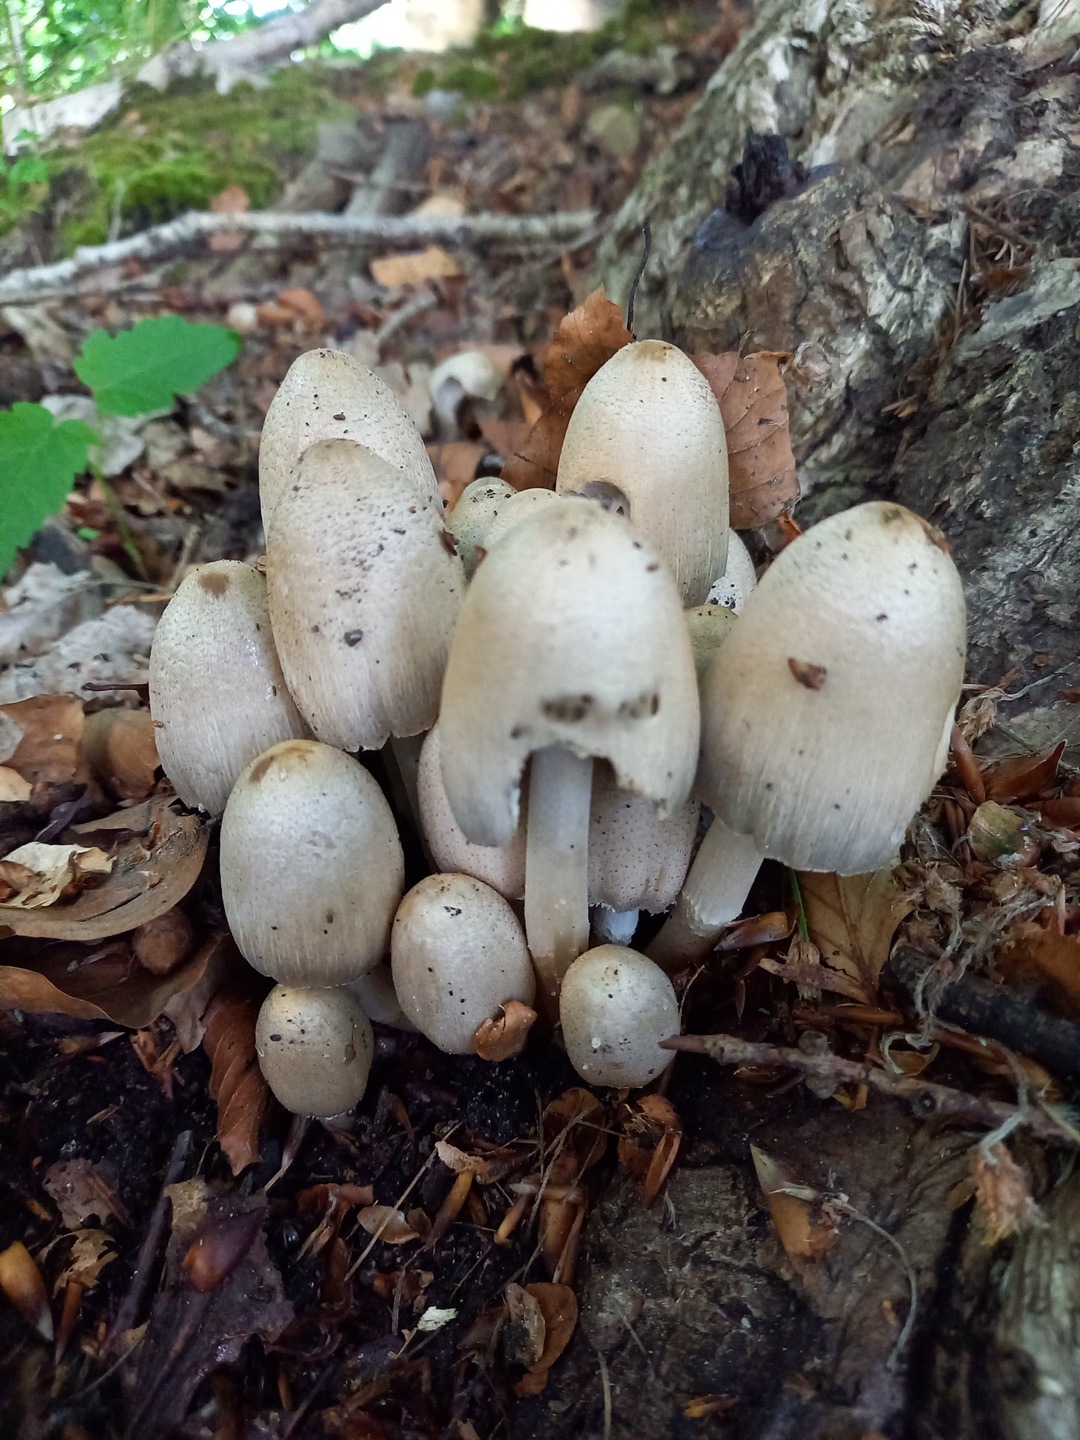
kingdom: Fungi
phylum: Basidiomycota
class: Agaricomycetes
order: Agaricales
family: Psathyrellaceae
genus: Coprinopsis
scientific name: Coprinopsis atramentaria
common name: almindelig blækhat
